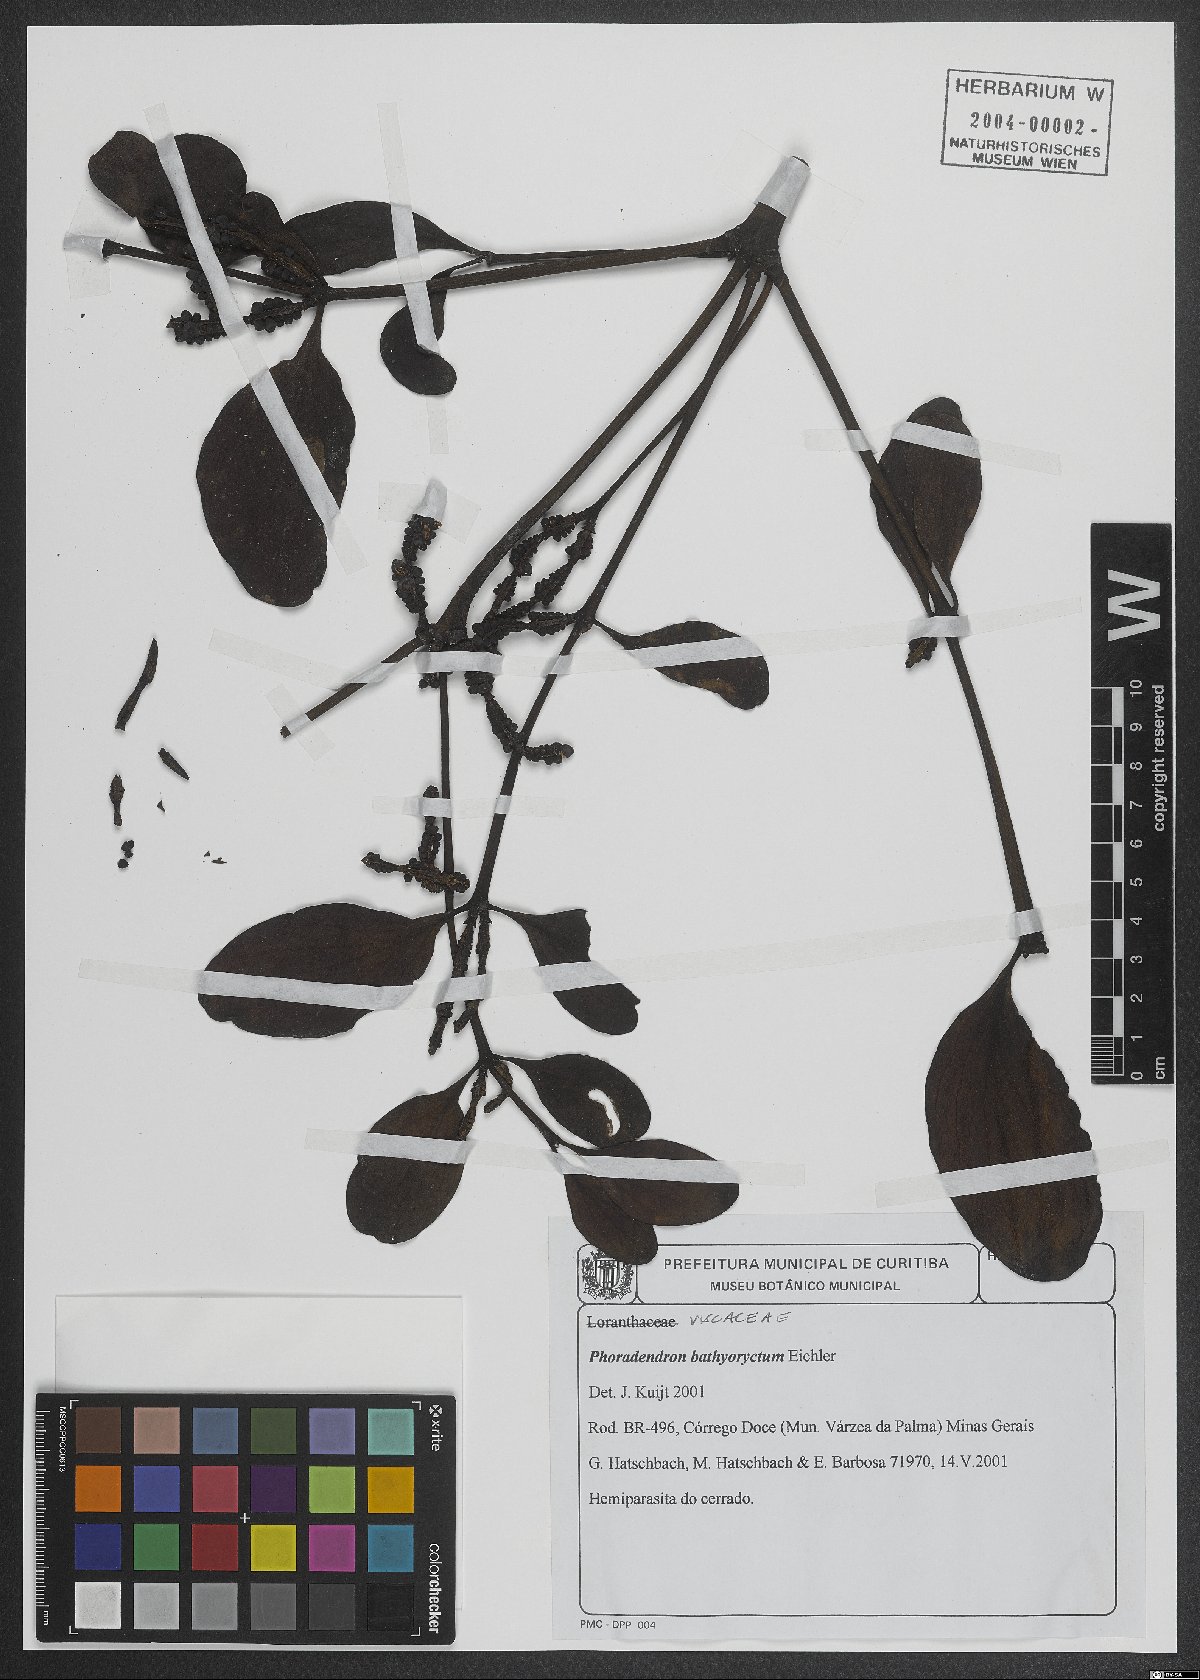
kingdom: Plantae
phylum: Tracheophyta
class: Magnoliopsida
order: Santalales
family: Viscaceae
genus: Phoradendron
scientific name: Phoradendron bathyoryctum
